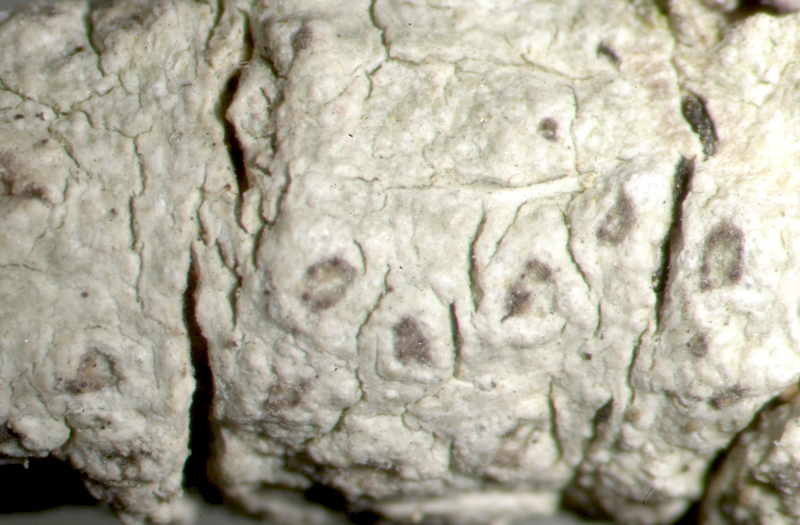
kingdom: Fungi
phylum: Ascomycota
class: Lecanoromycetes
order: Teloschistales
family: Teloschistaceae
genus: Caloplaca
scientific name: Caloplaca
